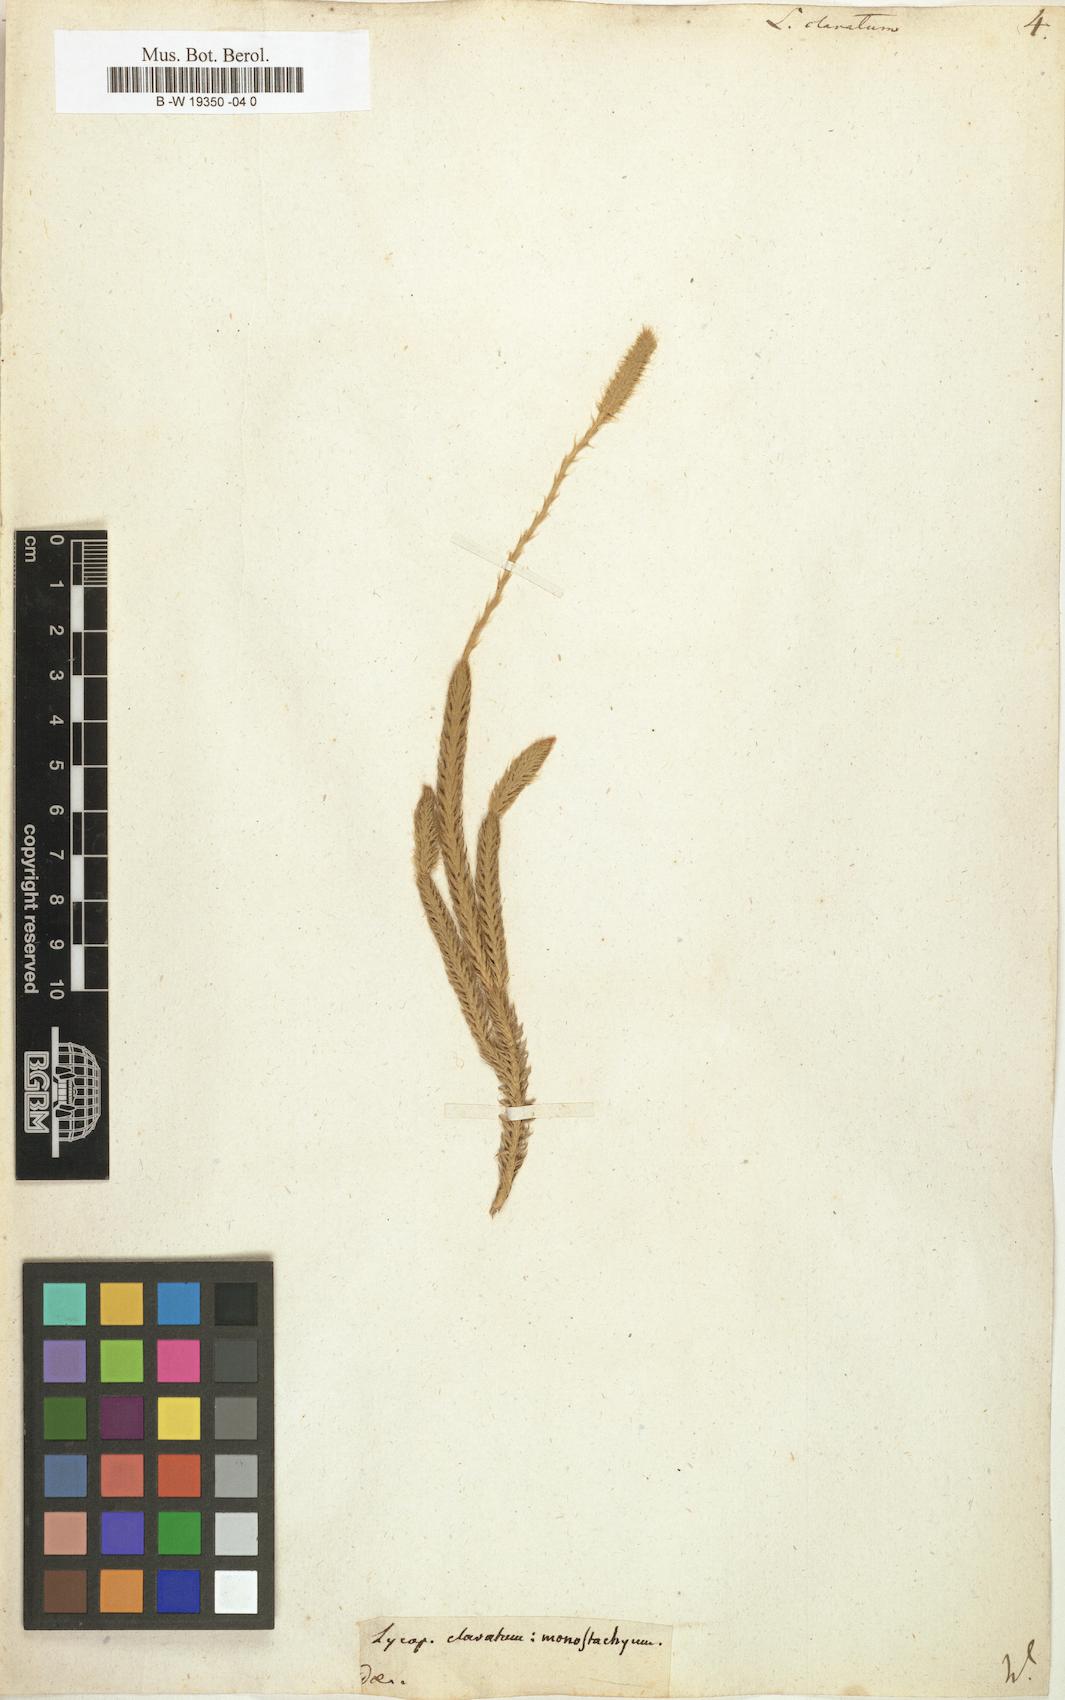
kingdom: Plantae
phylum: Tracheophyta
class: Lycopodiopsida
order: Lycopodiales
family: Lycopodiaceae
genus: Lycopodium
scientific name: Lycopodium clavatum
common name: Stag's-horn clubmoss
